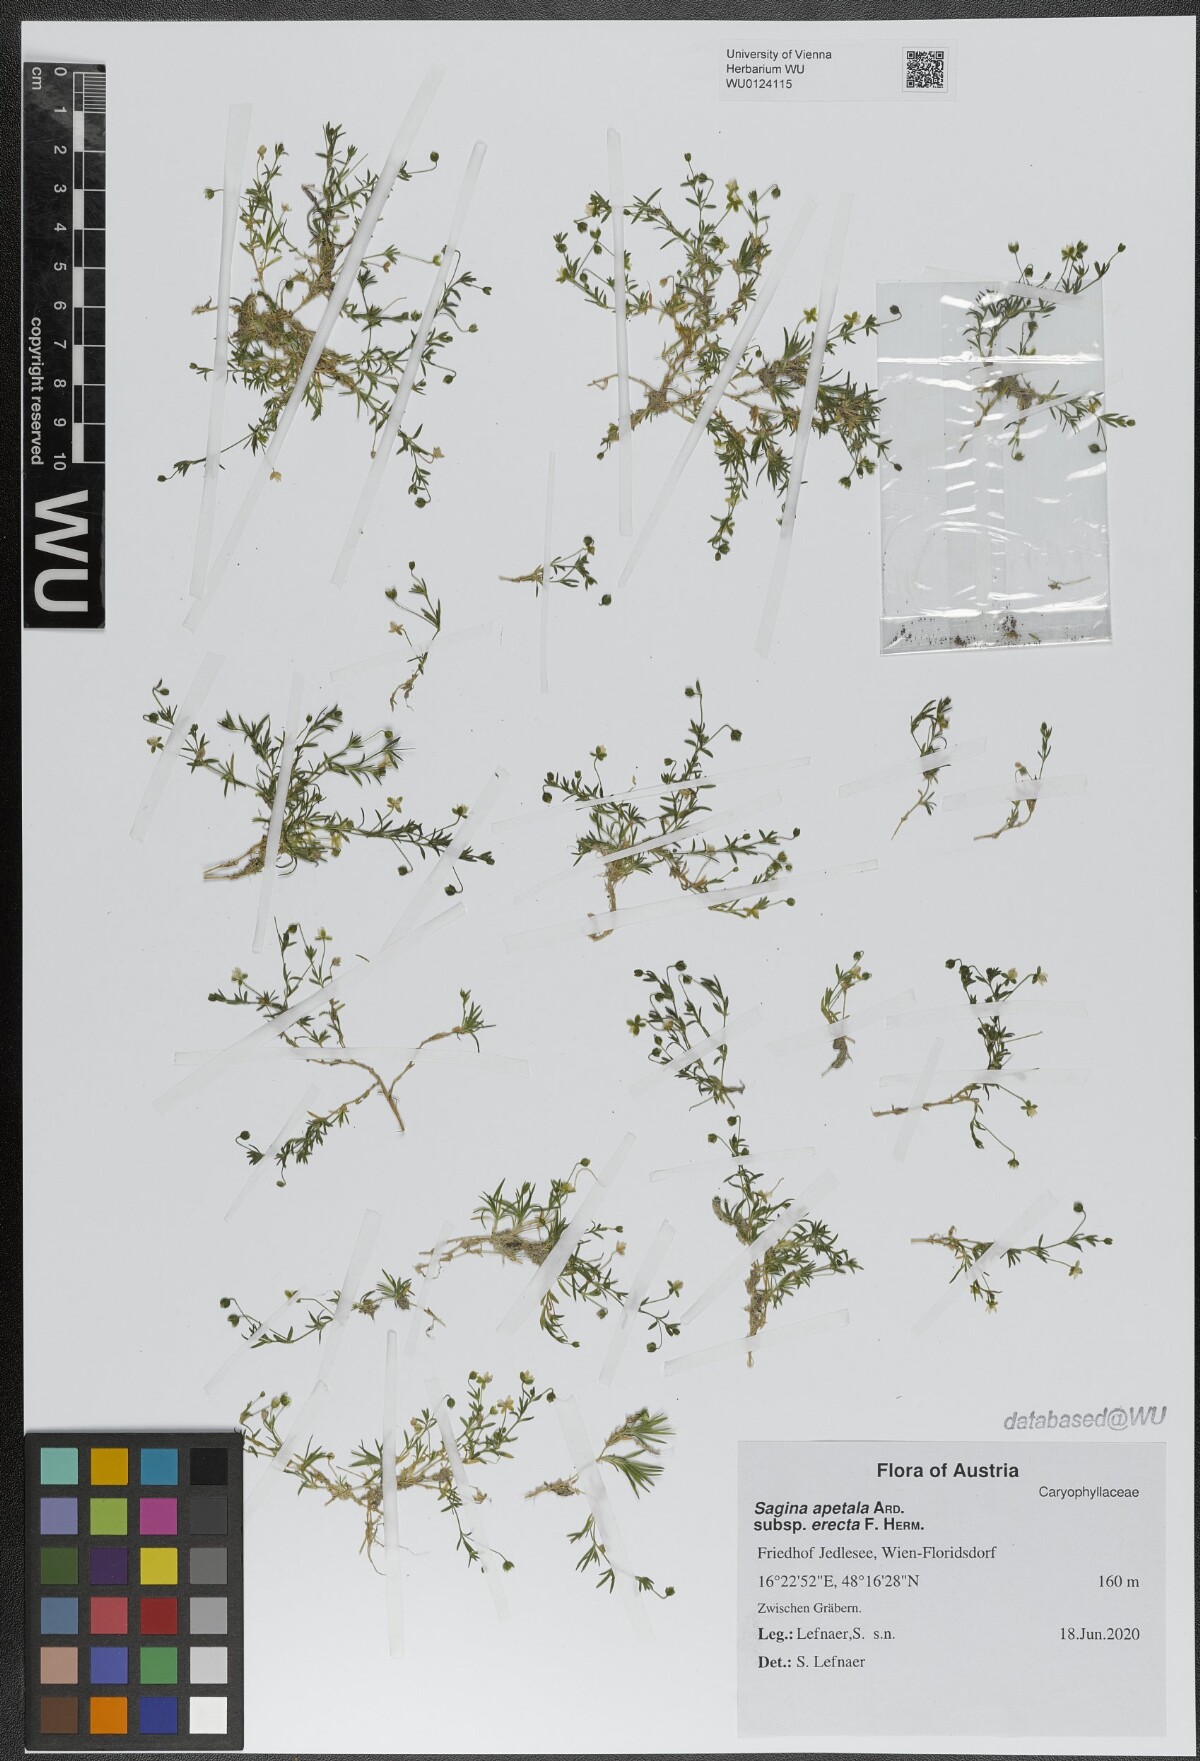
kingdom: Plantae
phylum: Tracheophyta
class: Magnoliopsida
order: Caryophyllales
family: Caryophyllaceae
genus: Sagina
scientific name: Sagina micropetala
